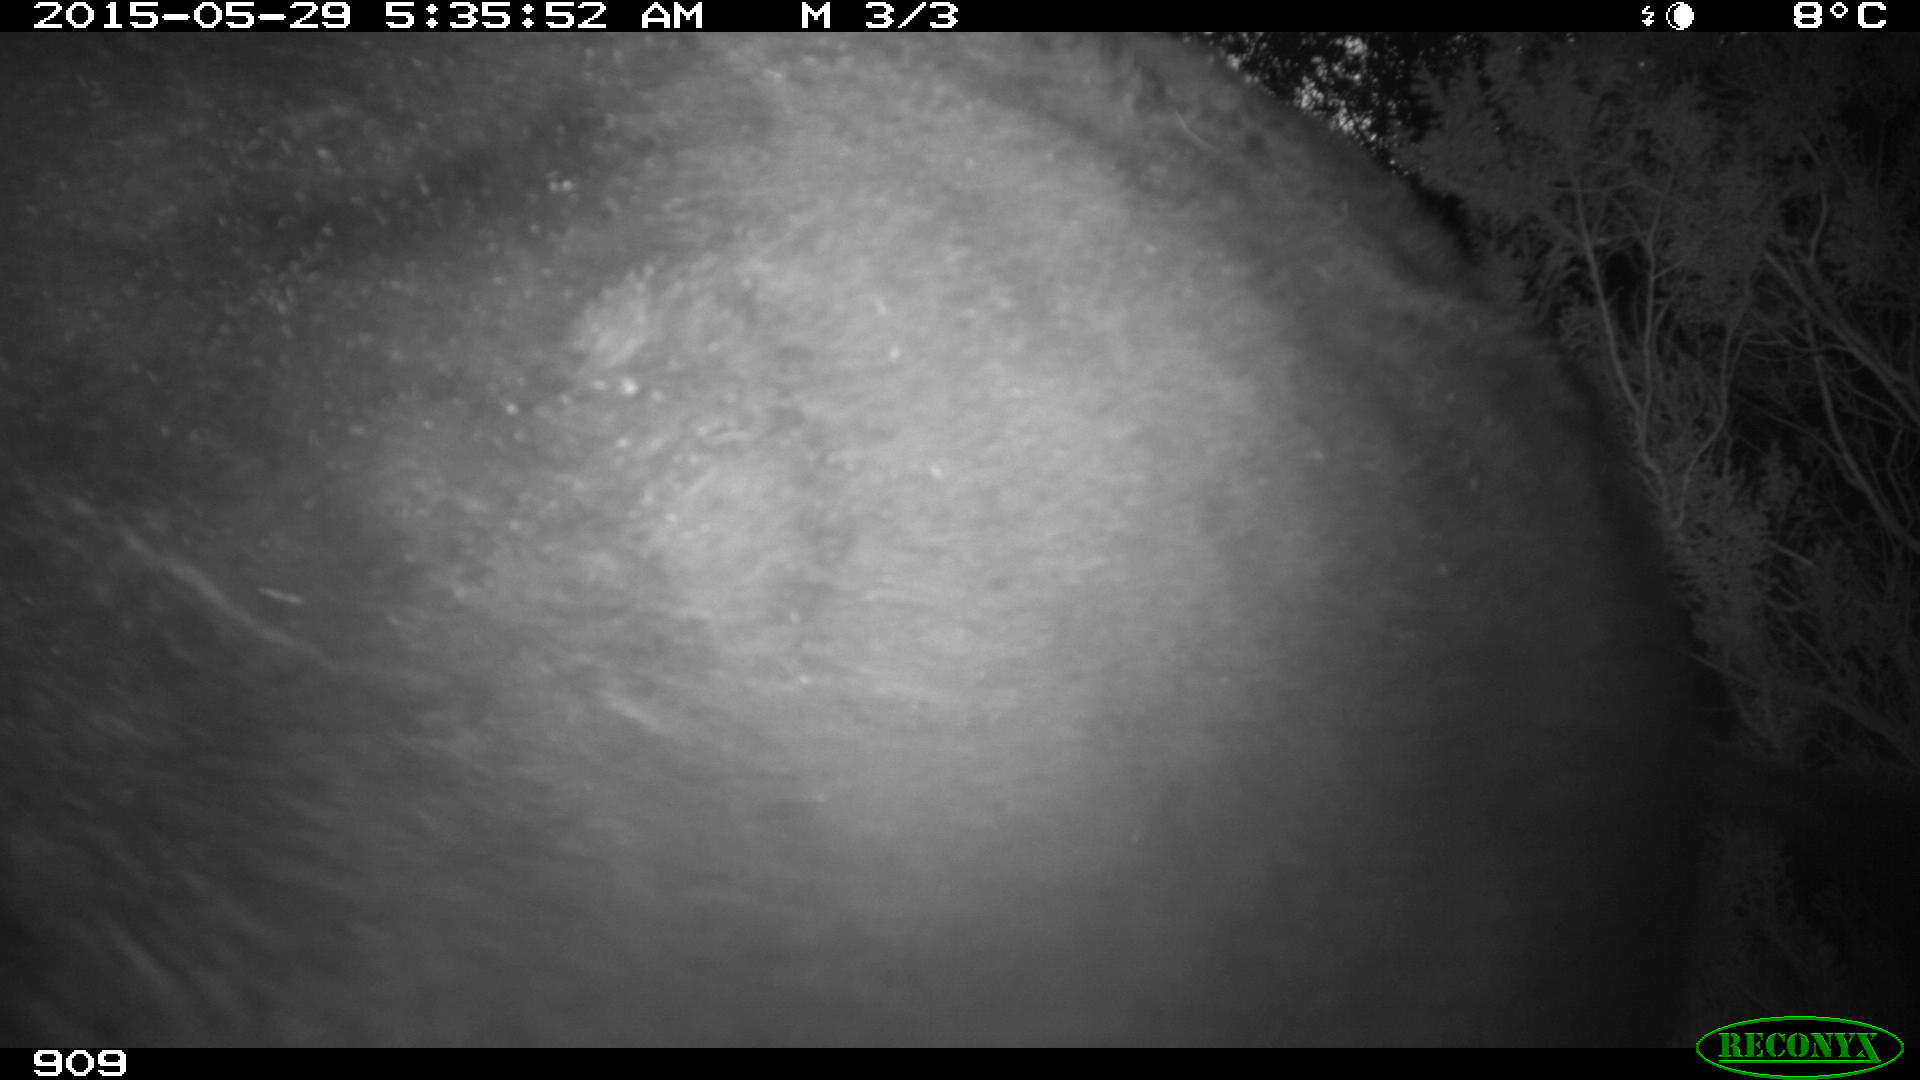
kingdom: Animalia
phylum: Chordata
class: Mammalia
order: Artiodactyla
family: Bovidae
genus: Bos
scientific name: Bos taurus
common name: Domesticated cattle
